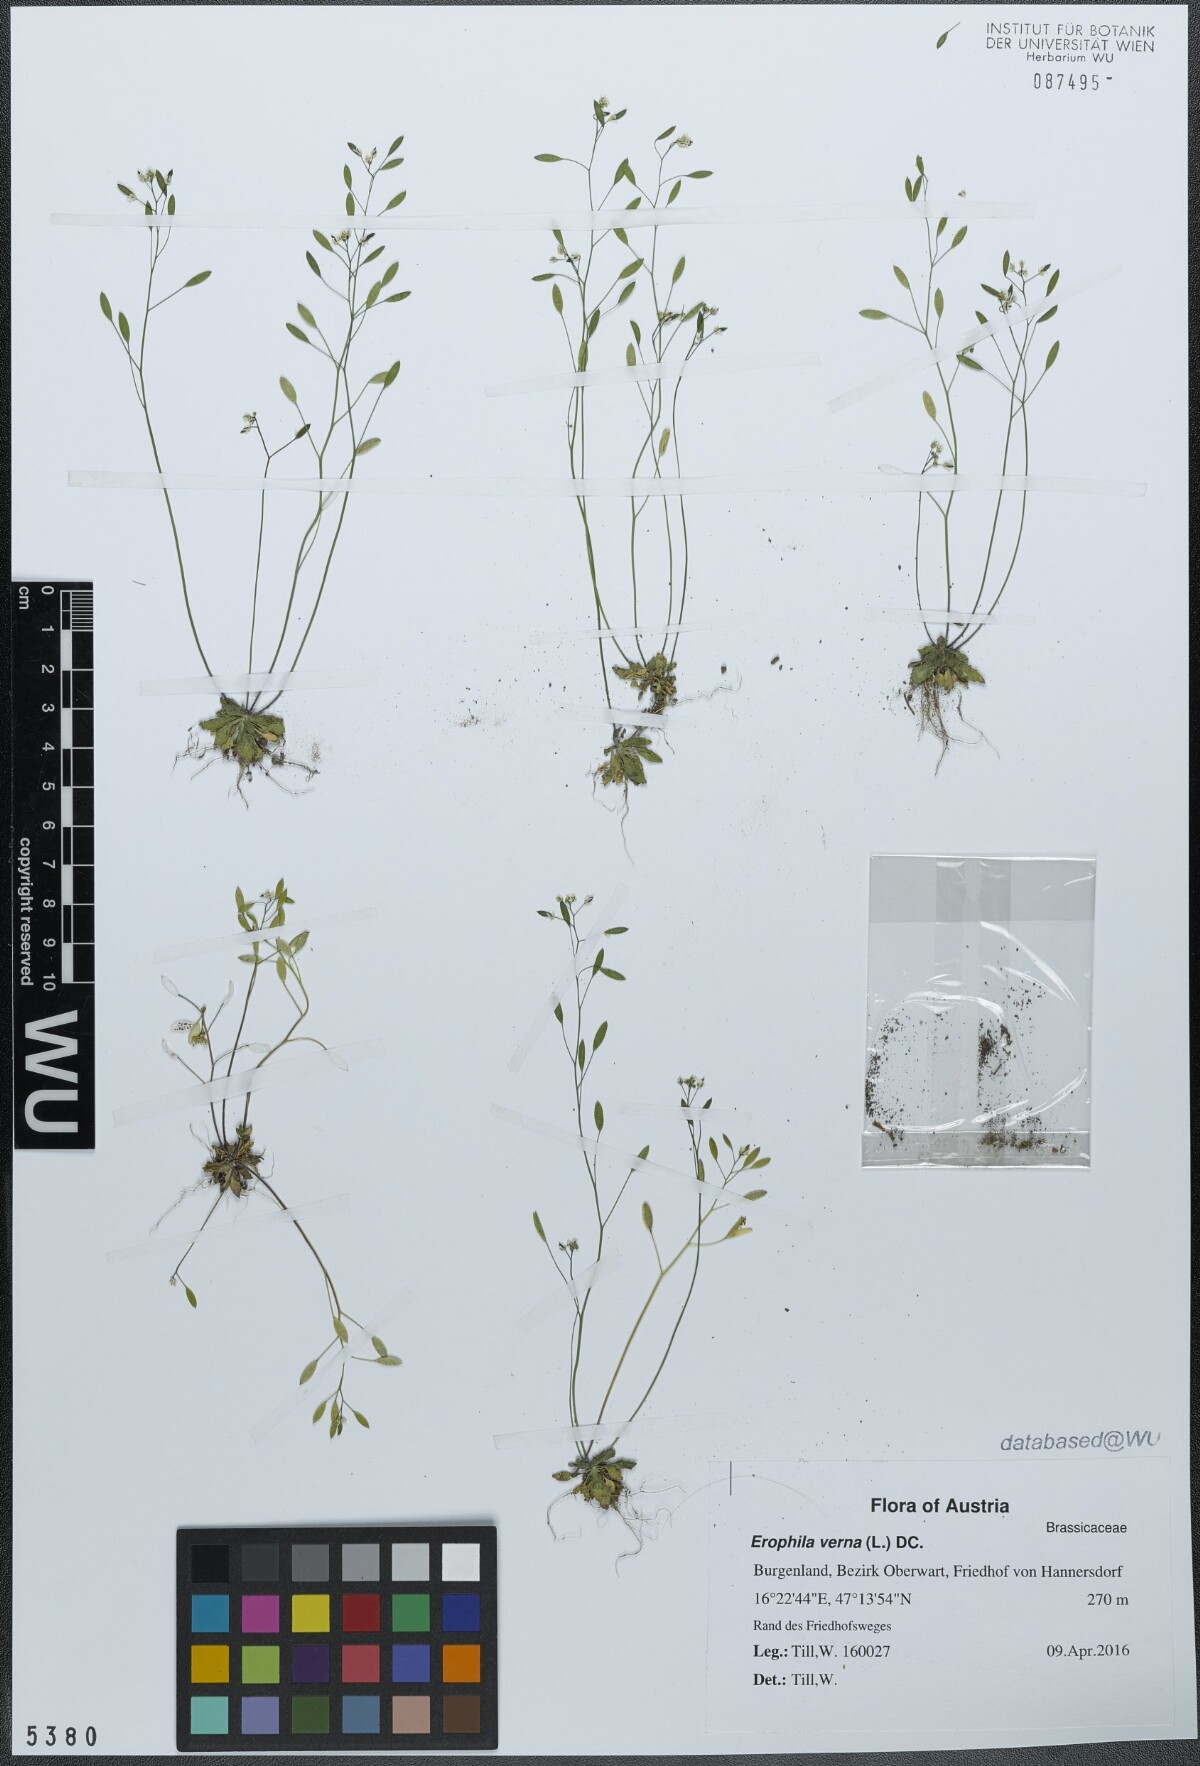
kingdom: Plantae
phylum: Tracheophyta
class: Magnoliopsida
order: Brassicales
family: Brassicaceae
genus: Draba
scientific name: Draba verna
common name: Spring draba
